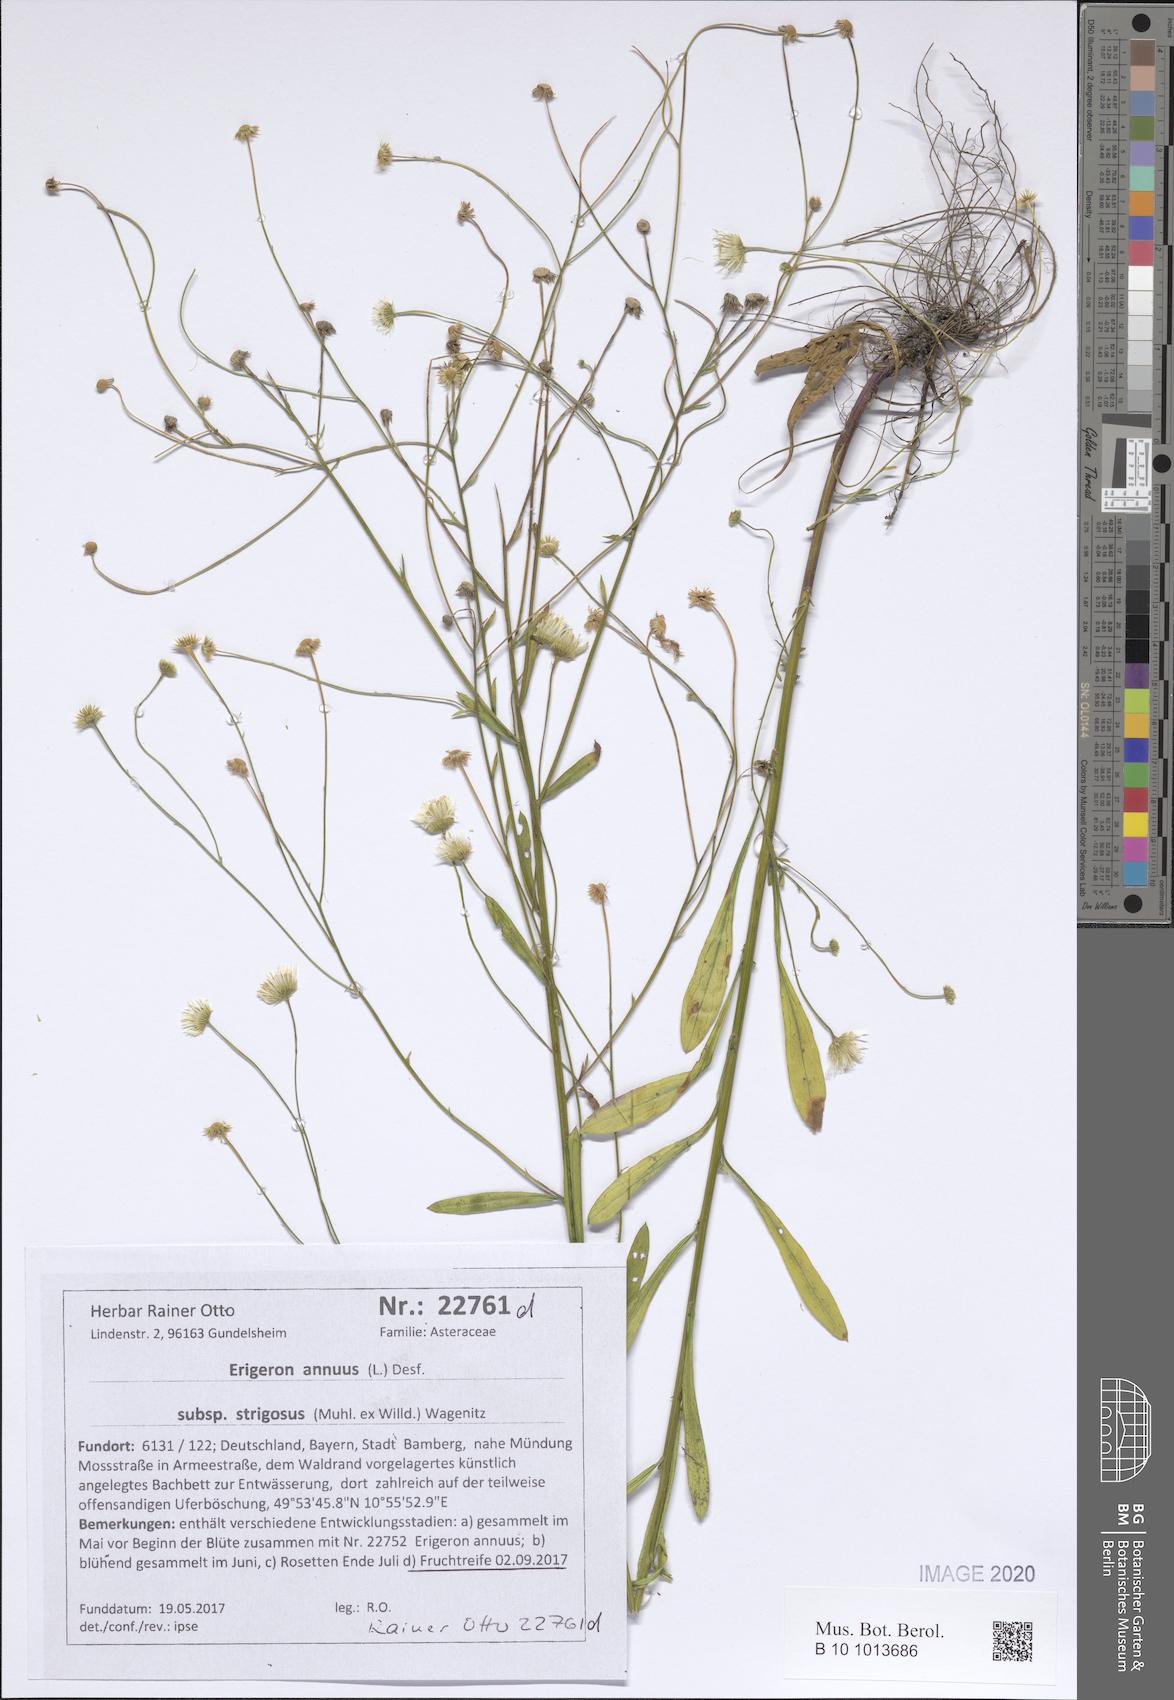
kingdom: Plantae
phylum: Tracheophyta
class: Magnoliopsida
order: Asterales
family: Asteraceae
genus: Erigeron
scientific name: Erigeron strigosus
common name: Common eastern fleabane
